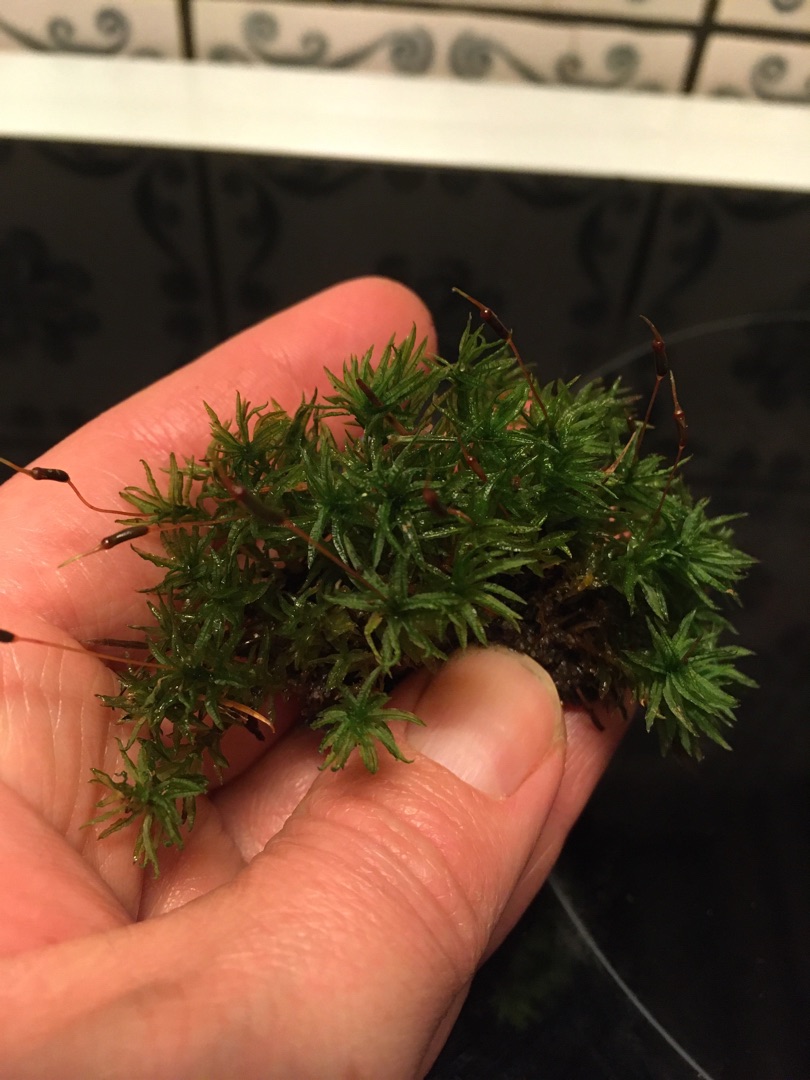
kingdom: Plantae
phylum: Bryophyta
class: Polytrichopsida
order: Polytrichales
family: Polytrichaceae
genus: Atrichum
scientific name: Atrichum undulatum
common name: Bølget katrinemos
